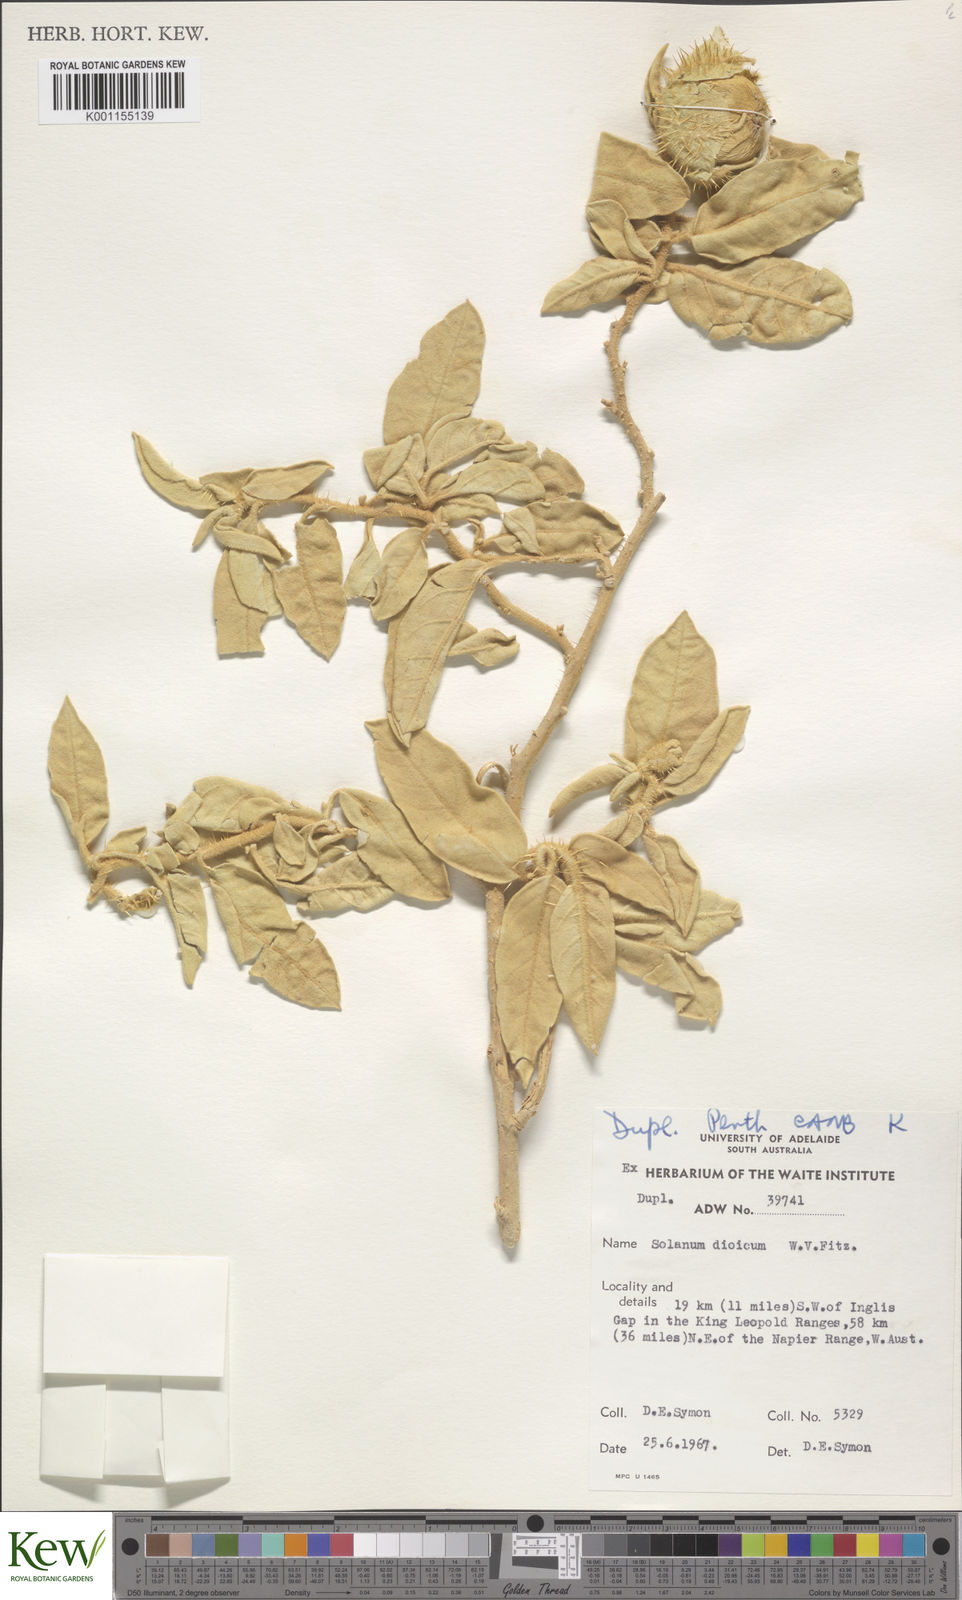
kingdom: Plantae
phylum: Tracheophyta
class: Magnoliopsida
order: Solanales
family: Solanaceae
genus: Solanum
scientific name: Solanum dioicum
